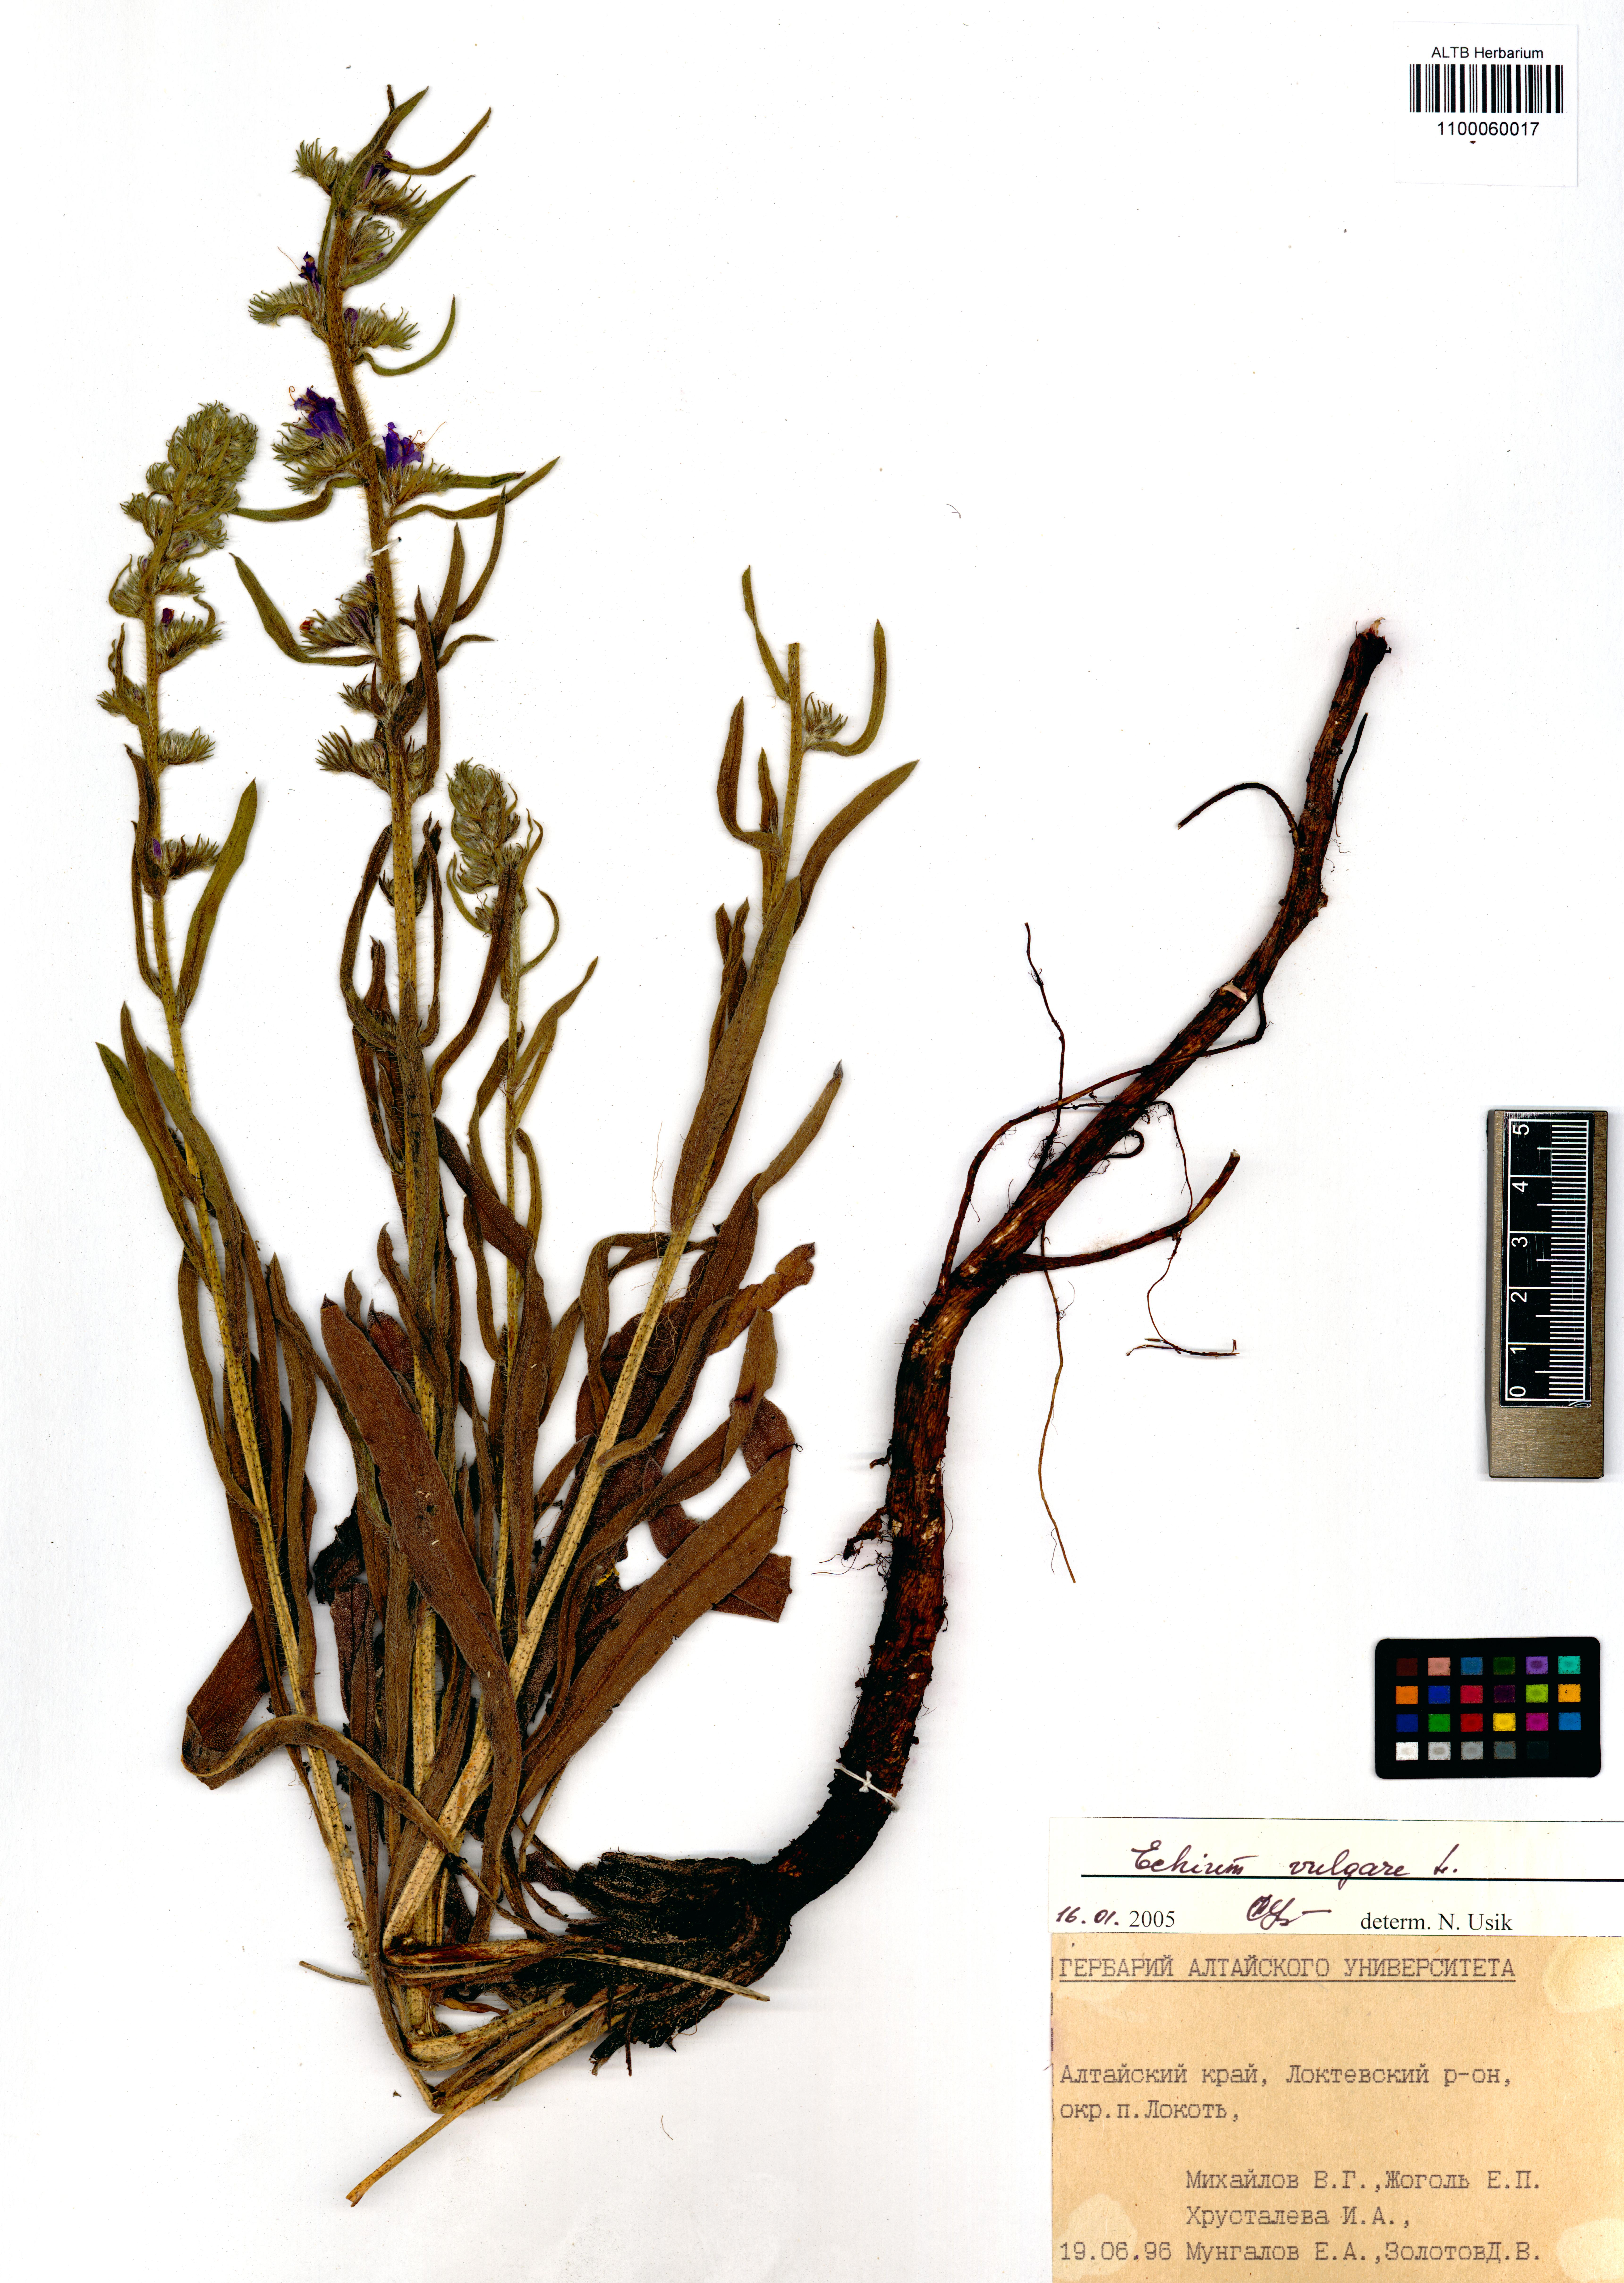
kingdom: Plantae
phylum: Tracheophyta
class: Magnoliopsida
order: Boraginales
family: Boraginaceae
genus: Echium
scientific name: Echium vulgare
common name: Common viper's bugloss
